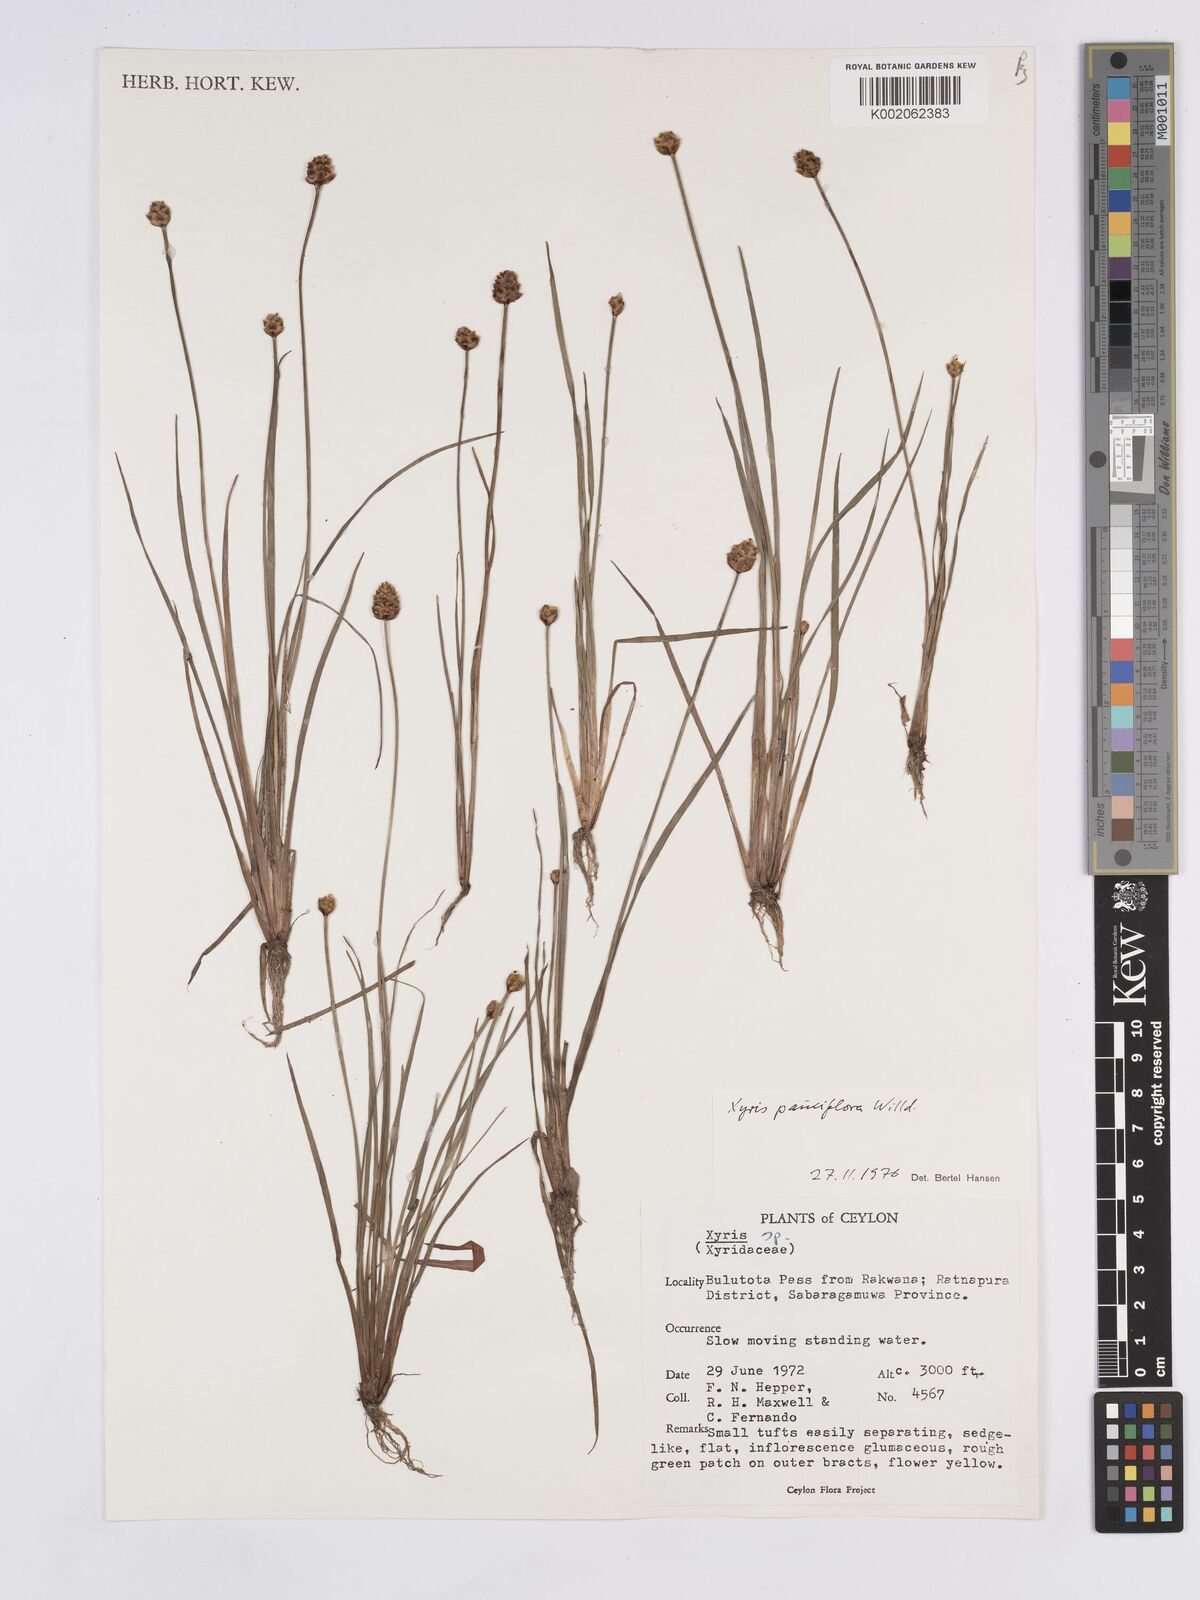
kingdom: Plantae
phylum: Tracheophyta
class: Liliopsida
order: Poales
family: Xyridaceae
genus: Xyris
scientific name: Xyris pauciflora
